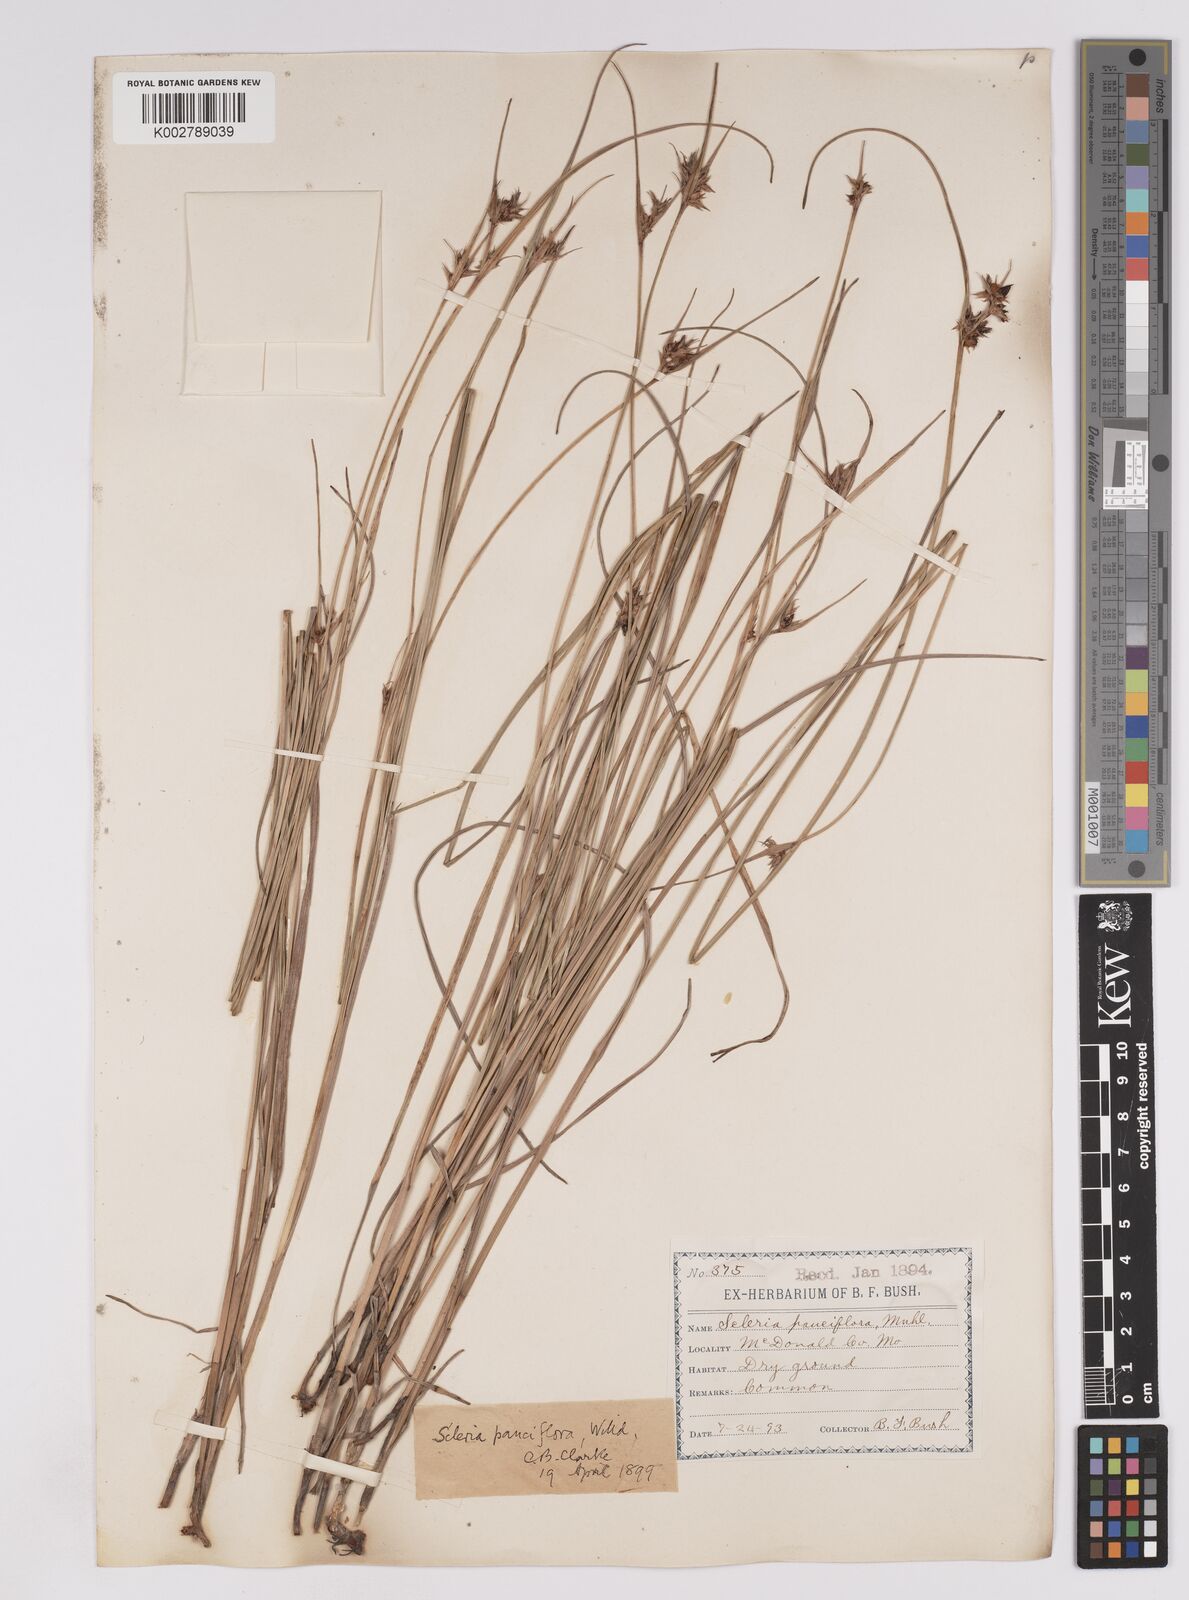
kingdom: Plantae
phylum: Tracheophyta
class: Liliopsida
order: Poales
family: Cyperaceae
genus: Scleria
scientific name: Scleria pauciflora
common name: Few-flowered nutrush
